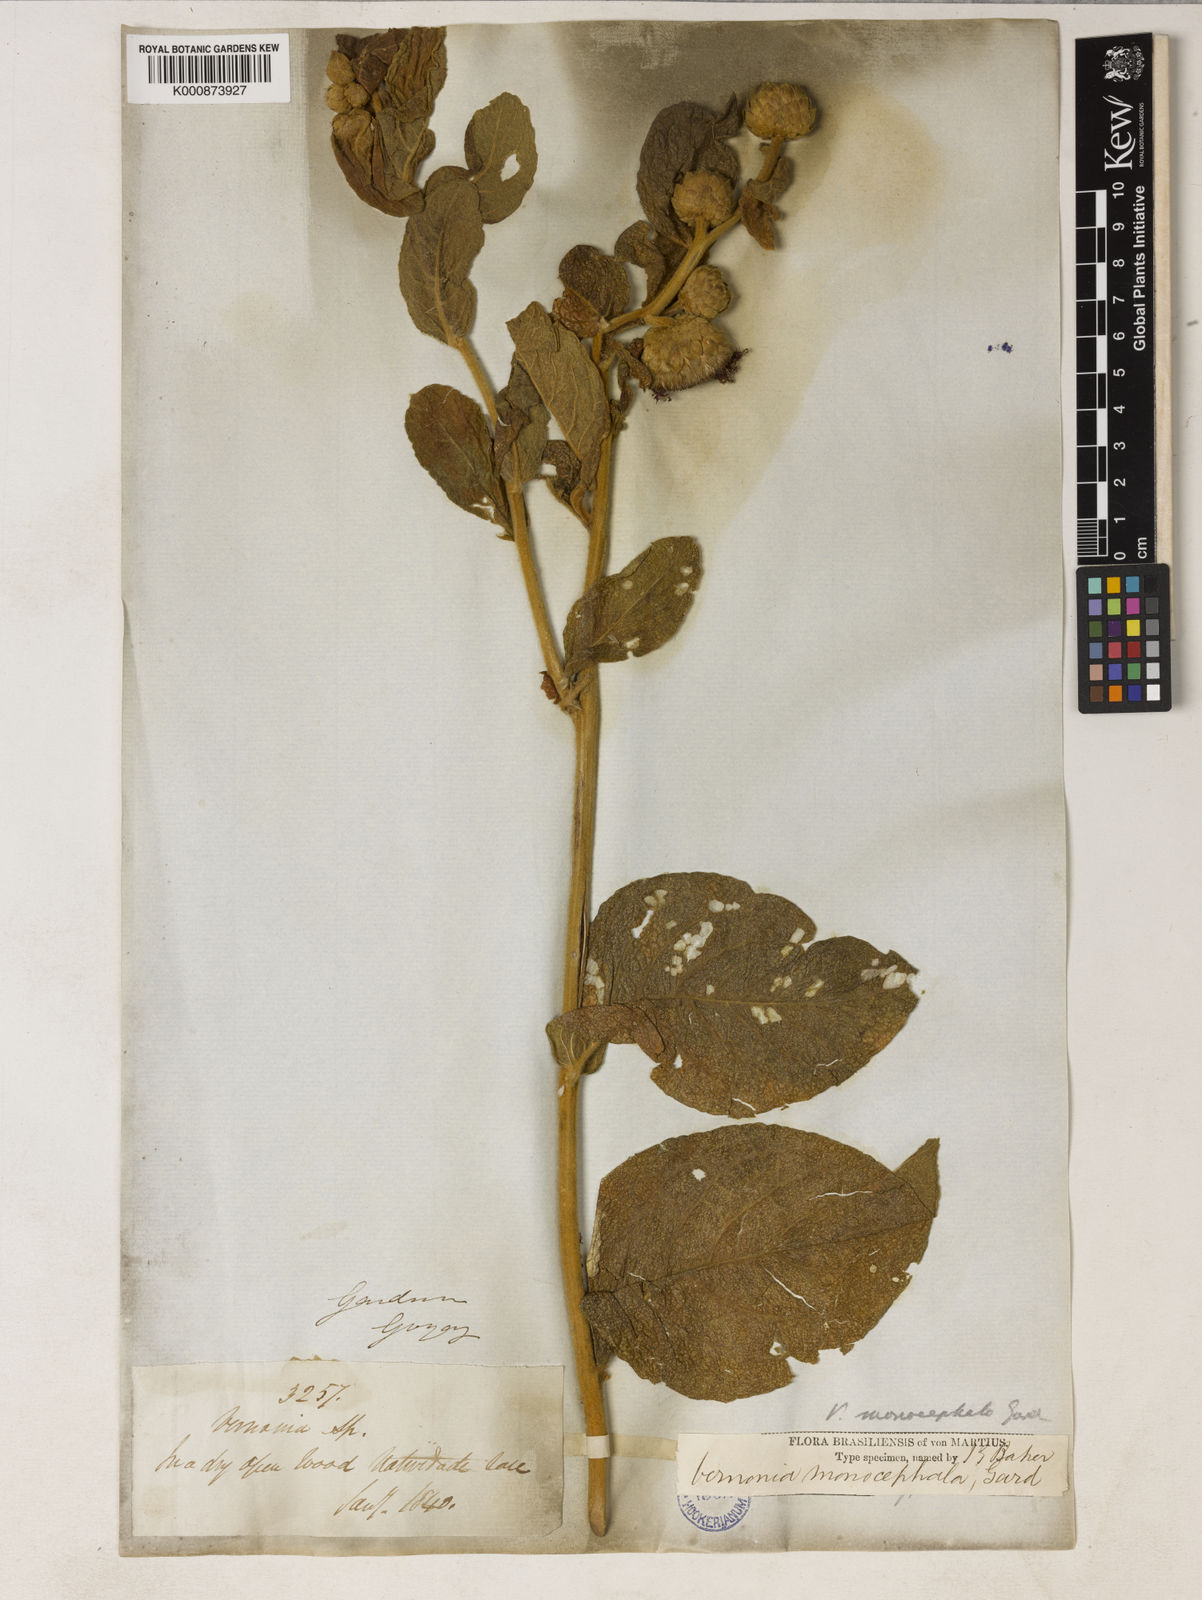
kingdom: Plantae
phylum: Tracheophyta
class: Magnoliopsida
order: Asterales
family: Asteraceae
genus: Lessingianthus
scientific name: Lessingianthus monocephalus
